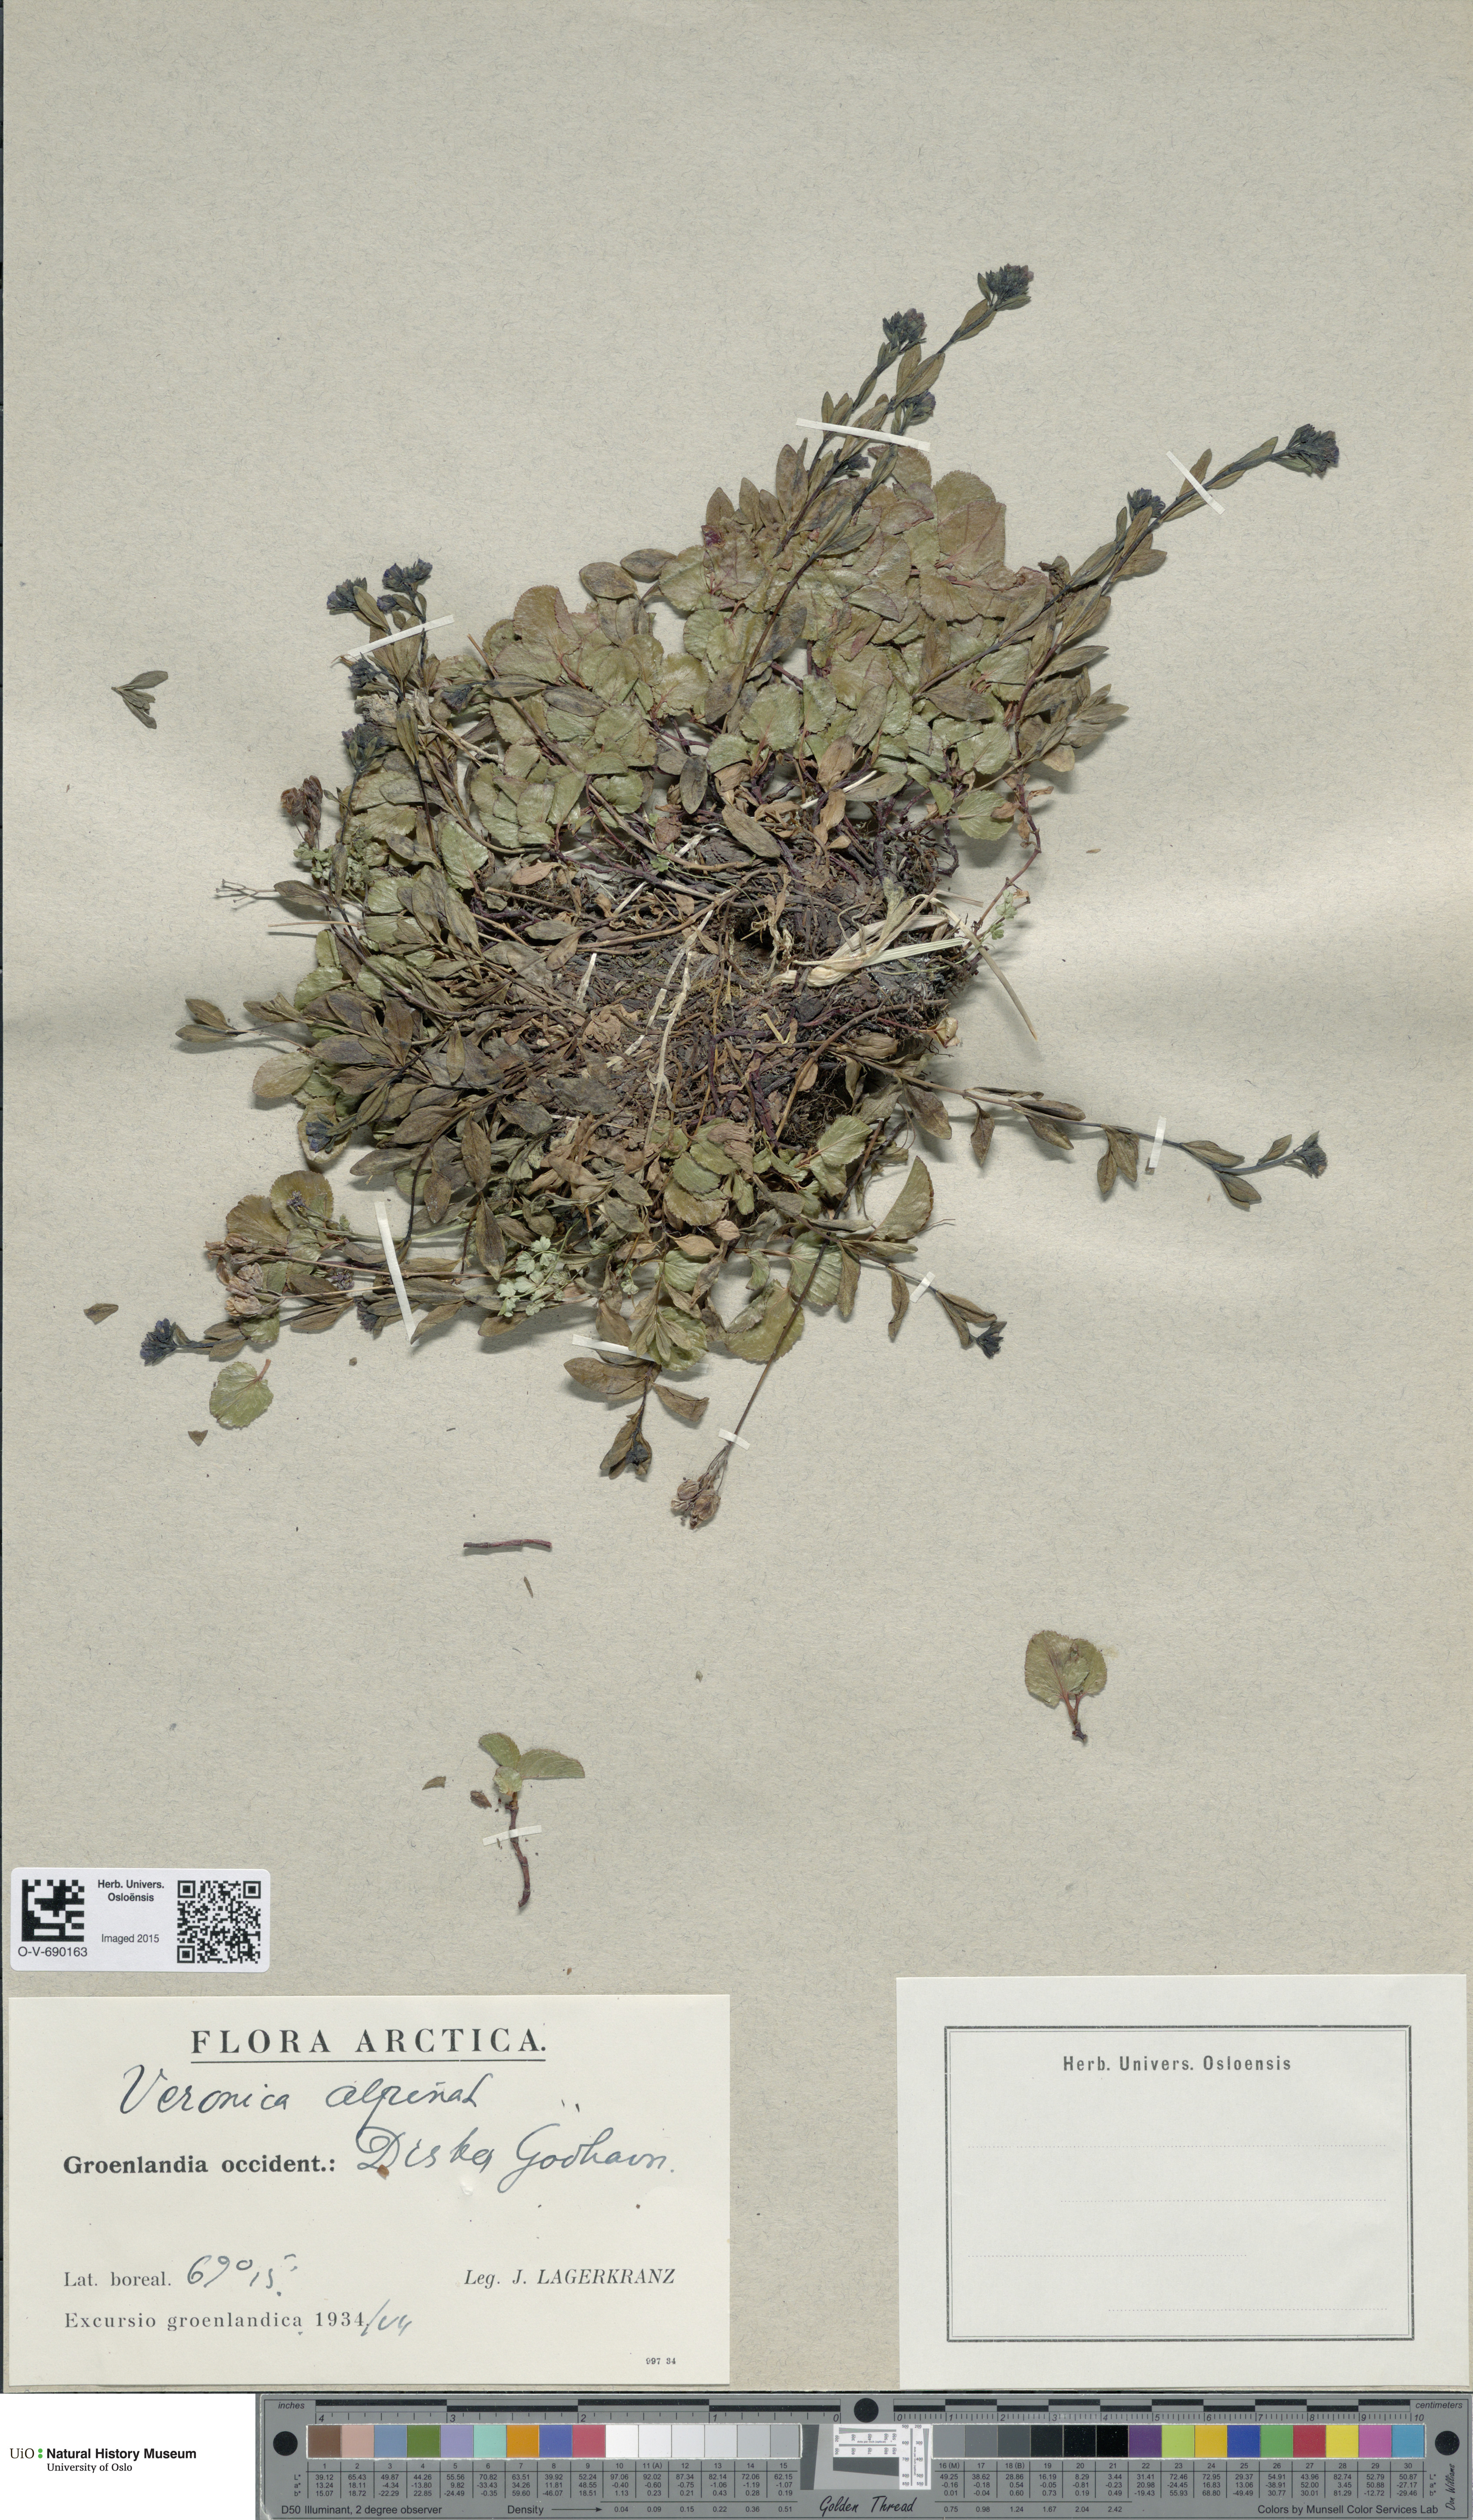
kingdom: Plantae
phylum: Tracheophyta
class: Magnoliopsida
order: Lamiales
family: Plantaginaceae
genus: Veronica
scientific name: Veronica alpina
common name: Alpine speedwell
